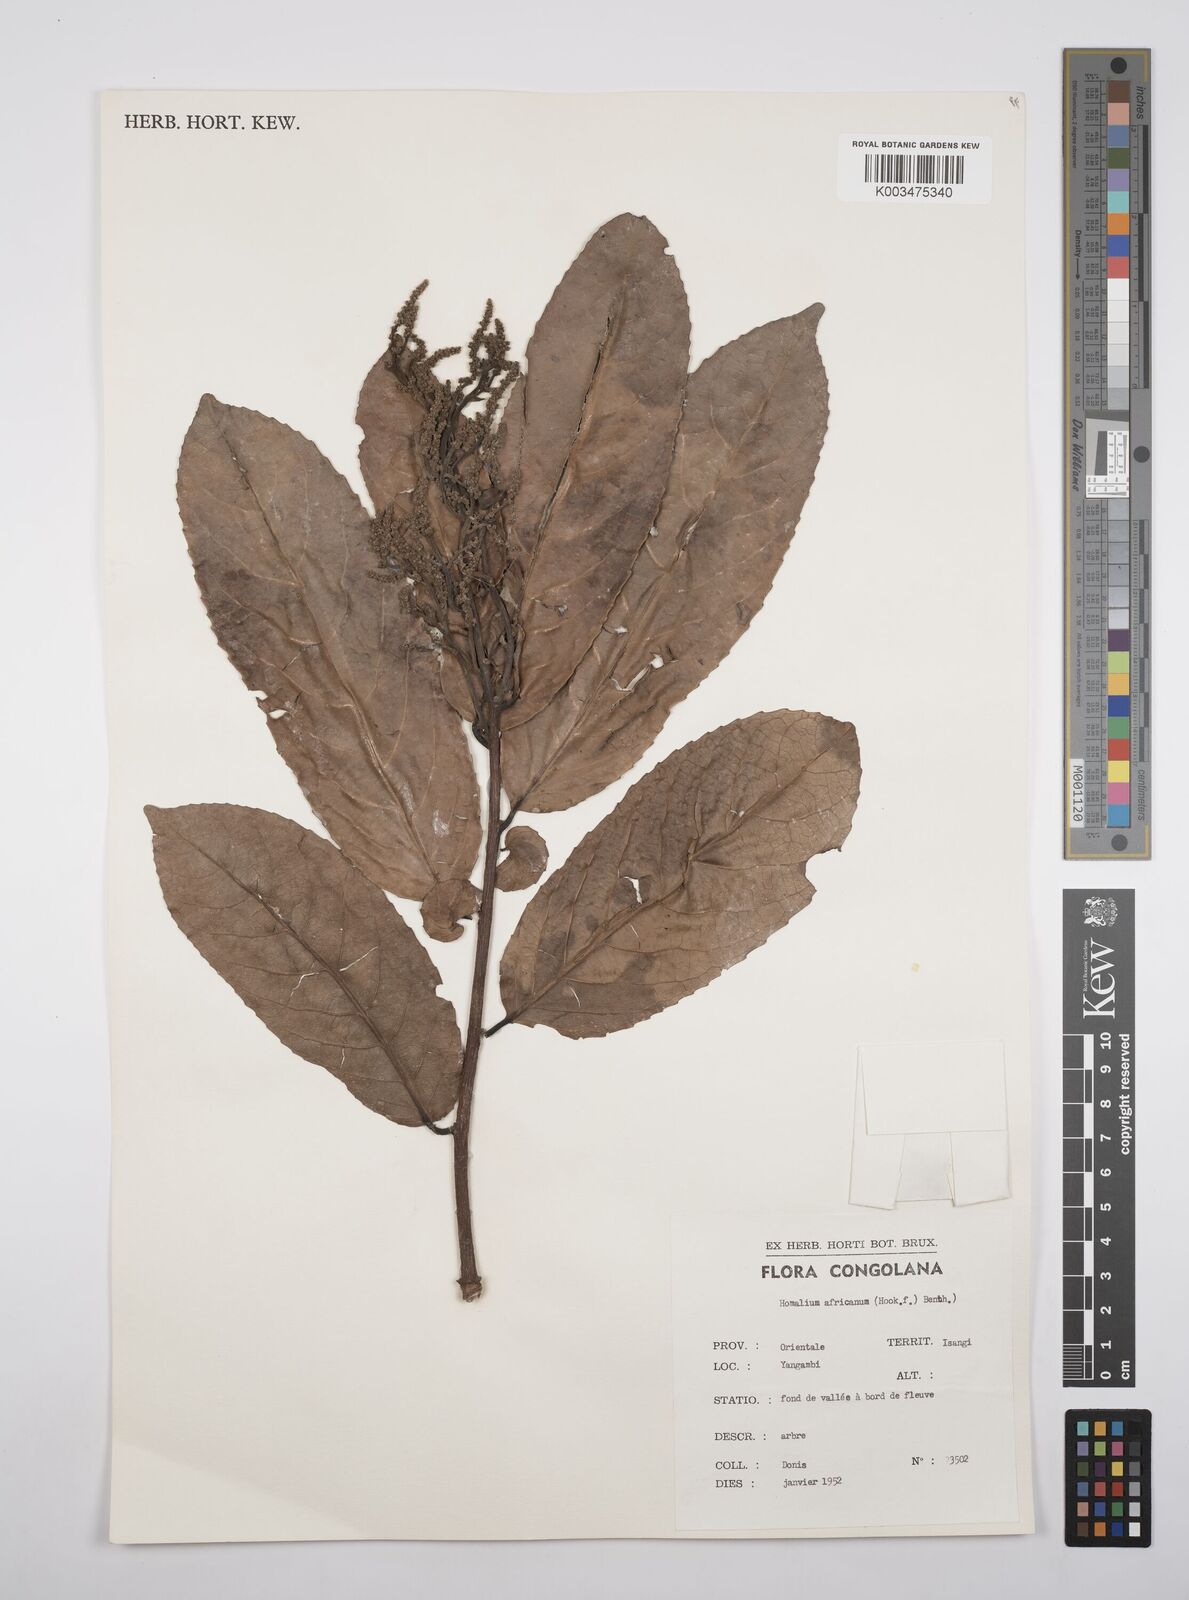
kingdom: Plantae
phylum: Tracheophyta
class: Magnoliopsida
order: Malpighiales
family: Salicaceae
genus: Homalium
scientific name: Homalium africanum
